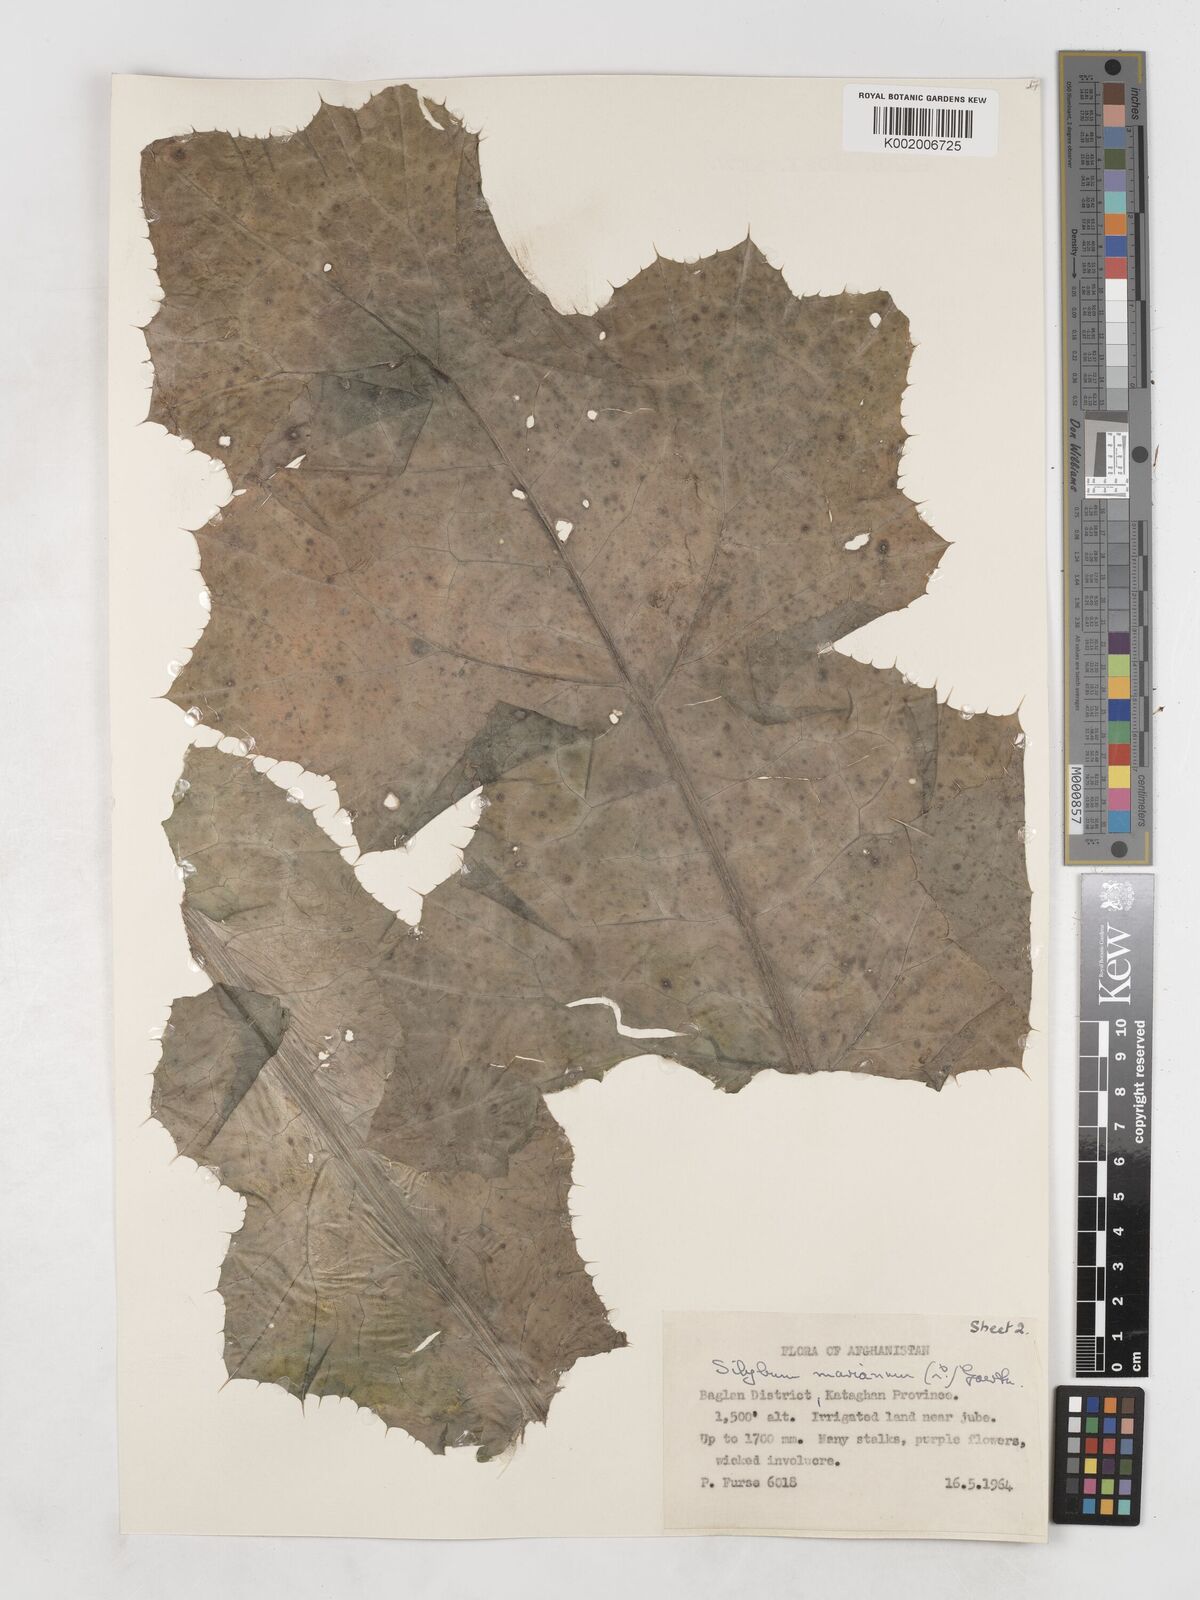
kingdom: Plantae
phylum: Tracheophyta
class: Magnoliopsida
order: Asterales
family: Asteraceae
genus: Silybum
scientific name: Silybum marianum
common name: Milk thistle
